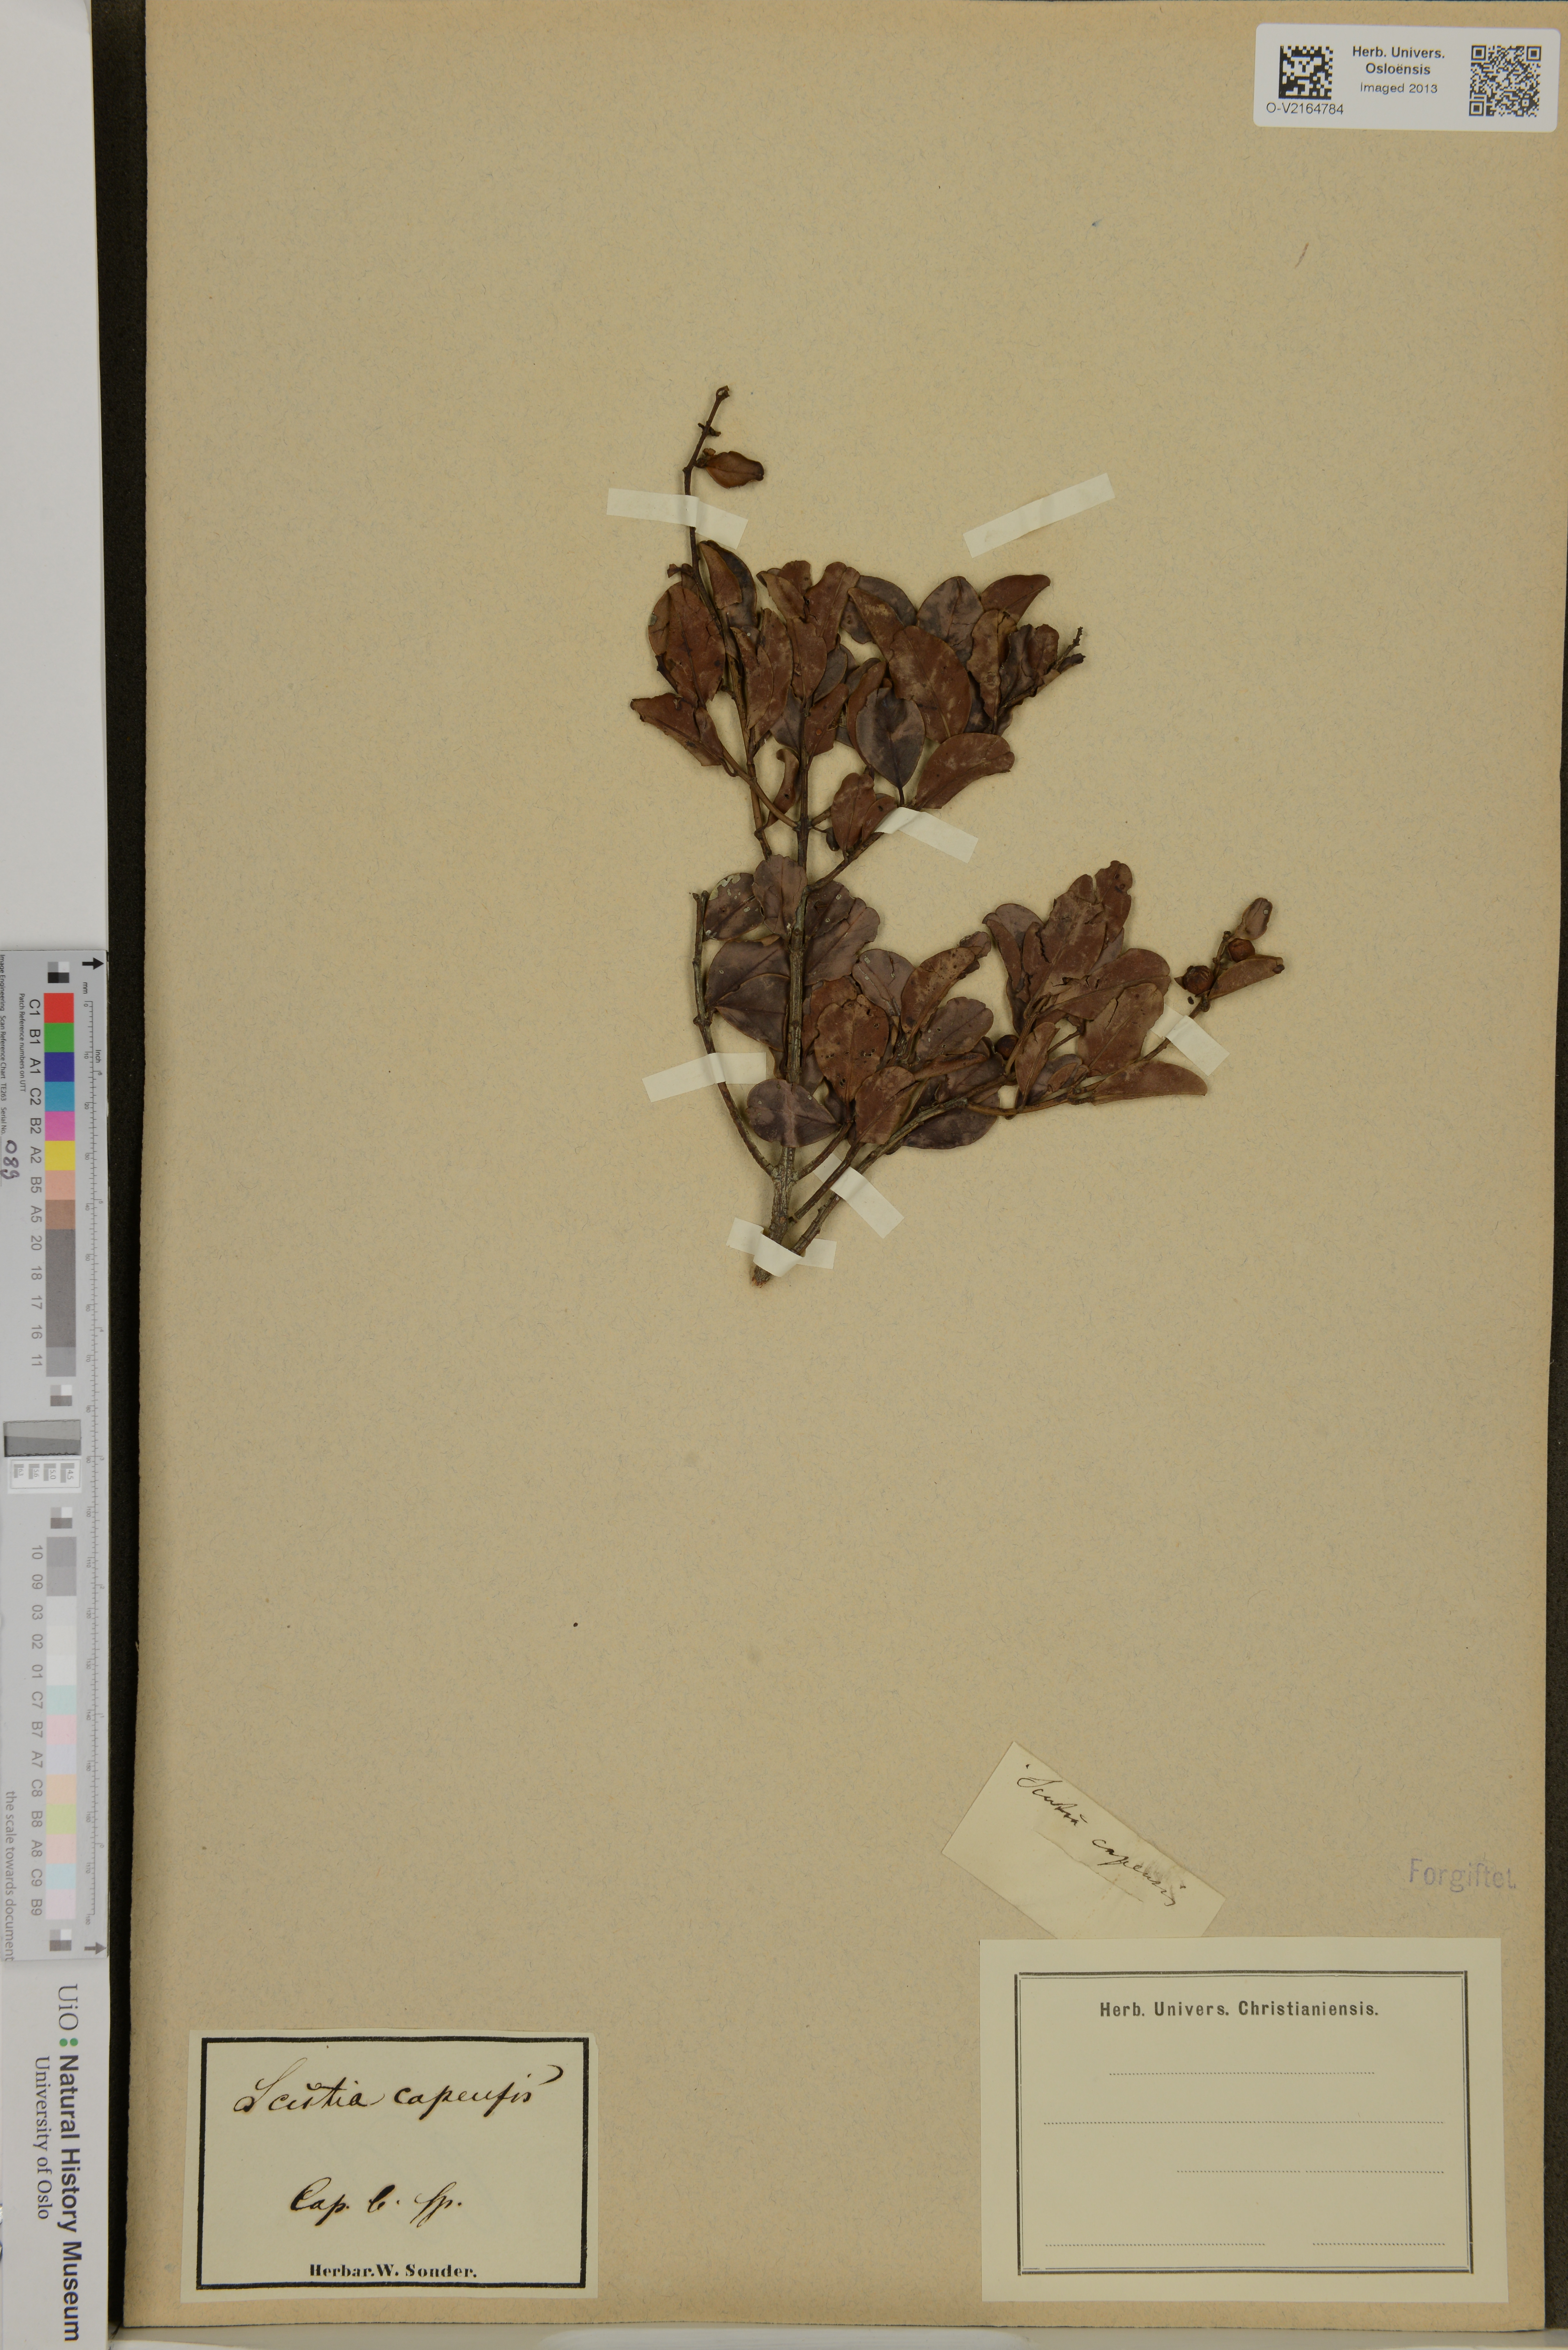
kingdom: Plantae
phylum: Tracheophyta
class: Magnoliopsida
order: Rosales
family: Rhamnaceae
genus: Scutia
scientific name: Scutia myrtina
